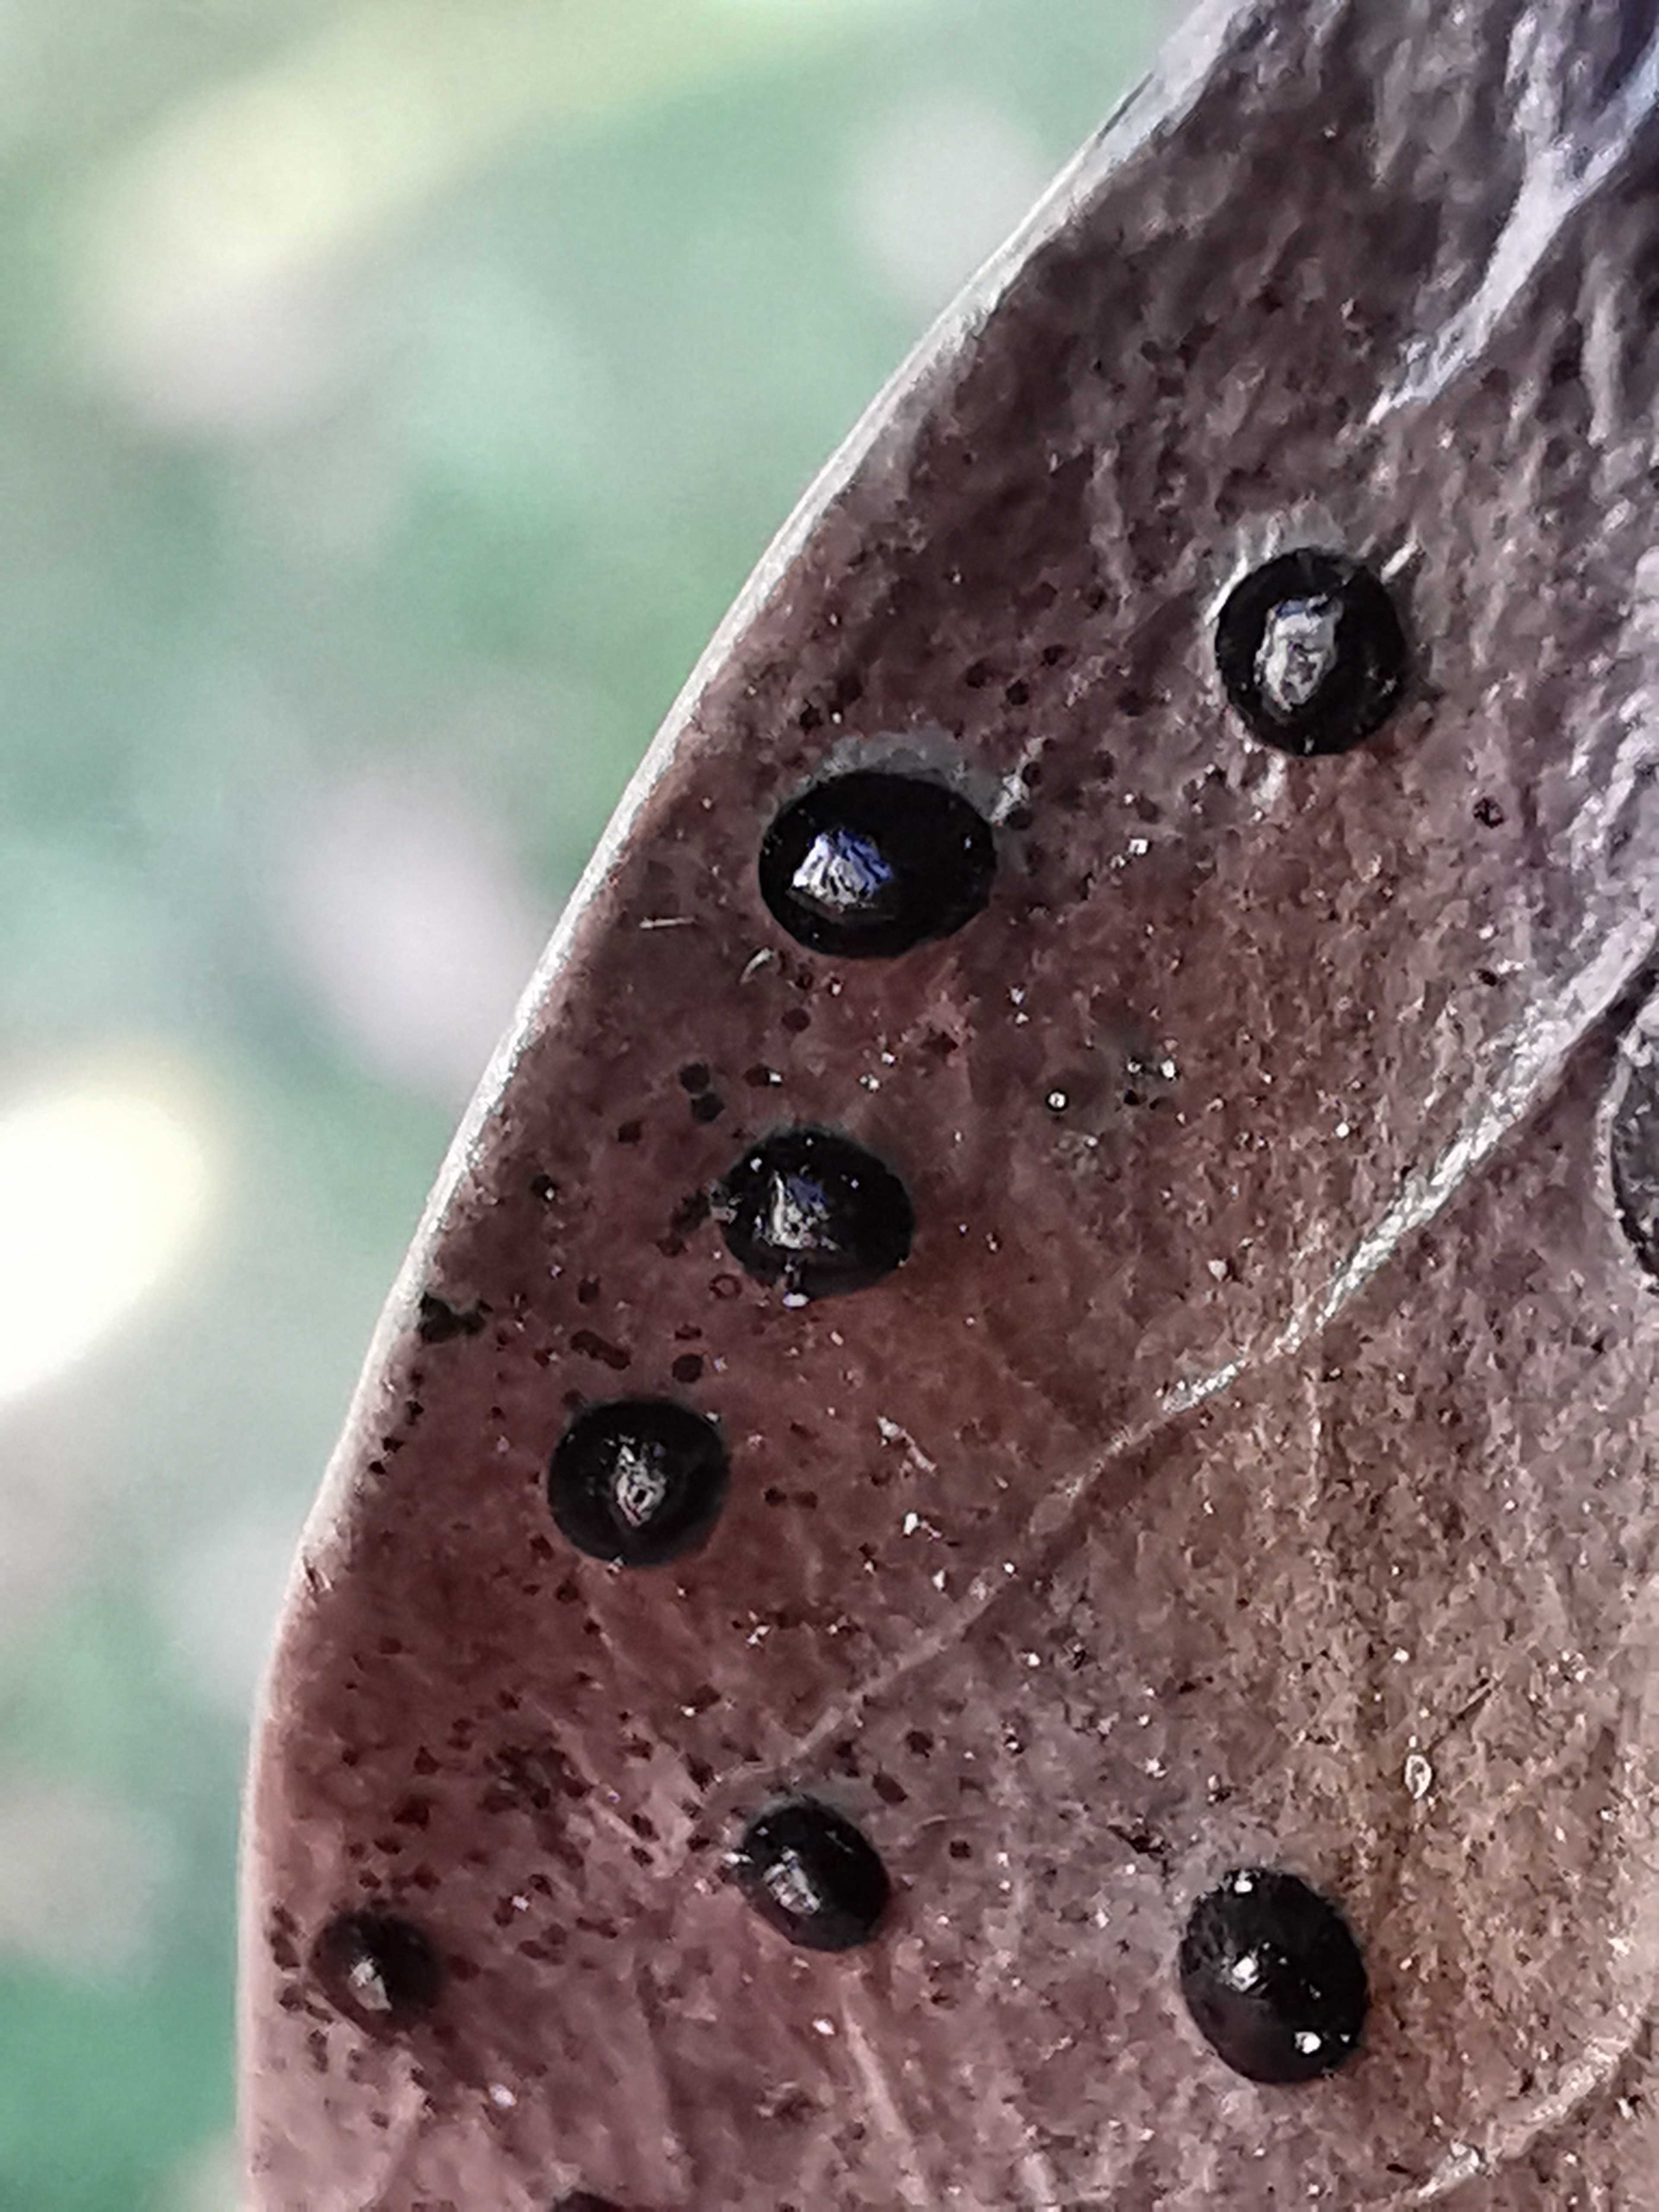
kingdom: Fungi
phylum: Ascomycota
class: Leotiomycetes
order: Phacidiales
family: Phacidiaceae
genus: Phacidium
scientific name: Phacidium lauri
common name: kristtorn-tandskive
